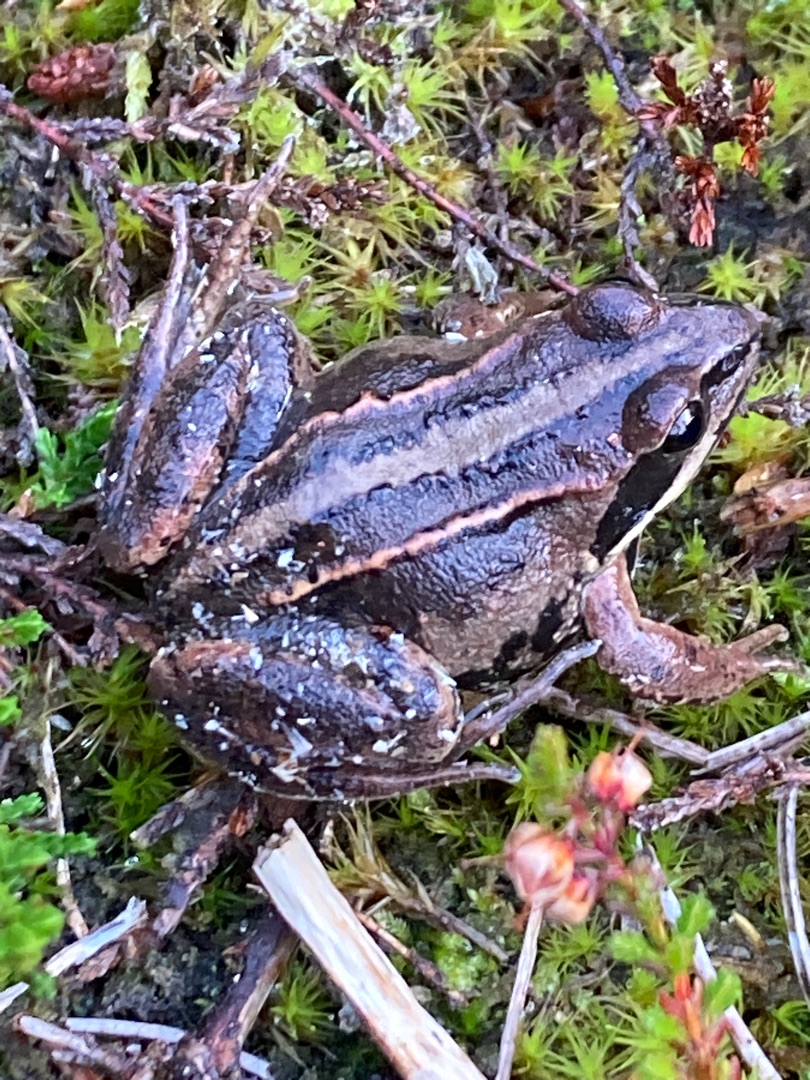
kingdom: Animalia
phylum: Chordata
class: Amphibia
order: Anura
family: Ranidae
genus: Rana
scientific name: Rana arvalis
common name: Spidssnudet frø
